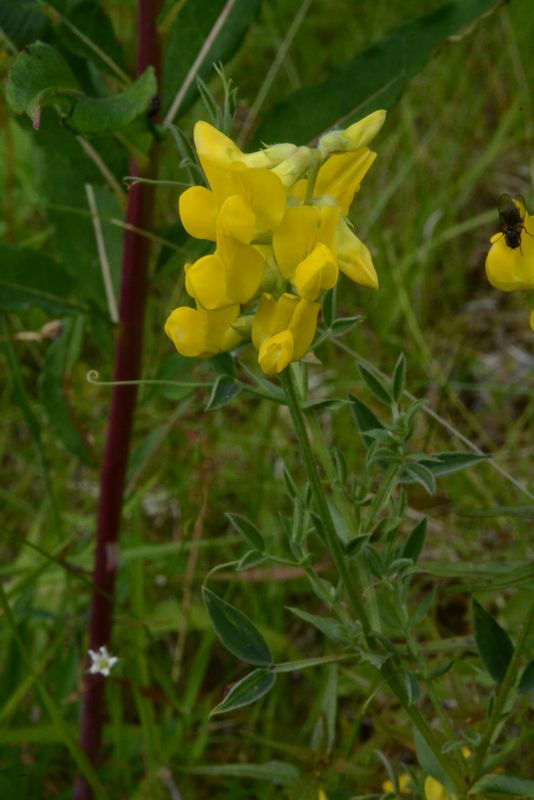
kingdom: Plantae
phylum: Tracheophyta
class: Magnoliopsida
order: Fabales
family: Fabaceae
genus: Lathyrus
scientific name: Lathyrus pratensis
